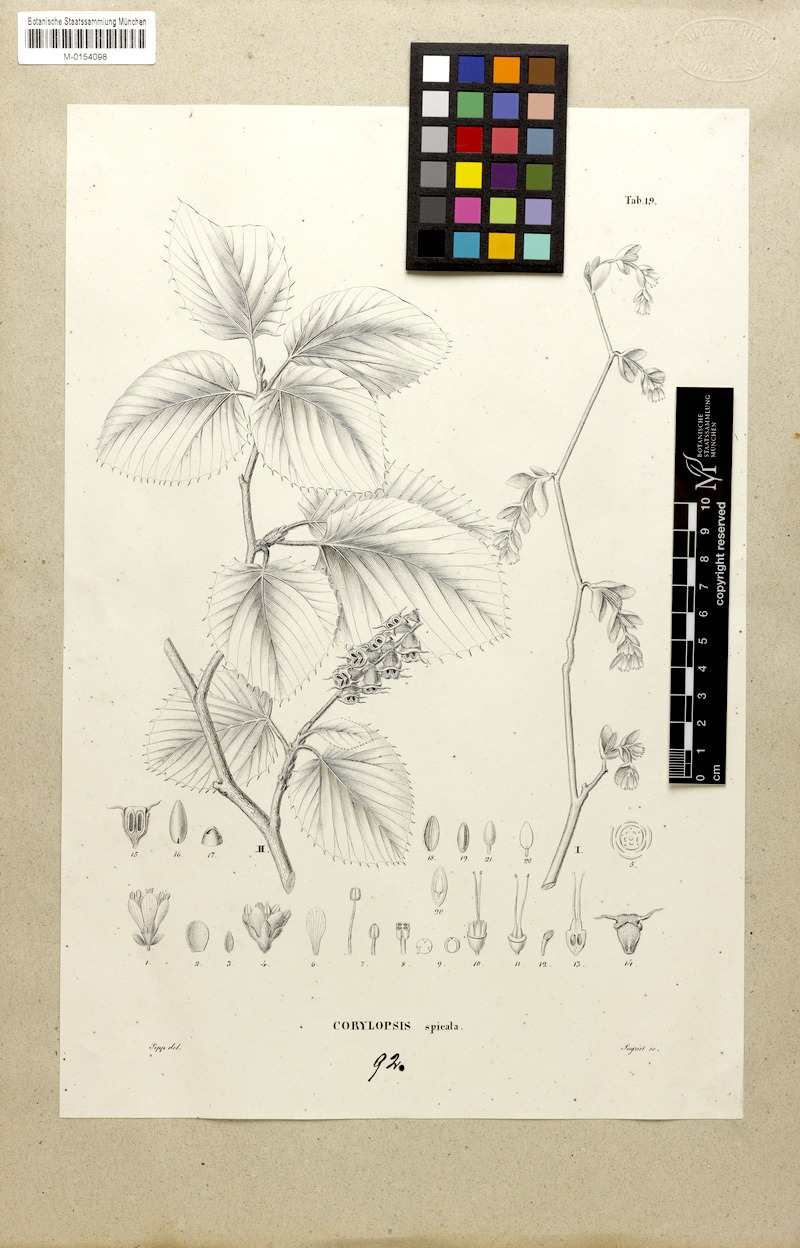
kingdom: Plantae
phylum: Tracheophyta
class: Magnoliopsida
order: Saxifragales
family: Hamamelidaceae
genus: Corylopsis
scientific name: Corylopsis spicata
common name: Spike winter-hazel
